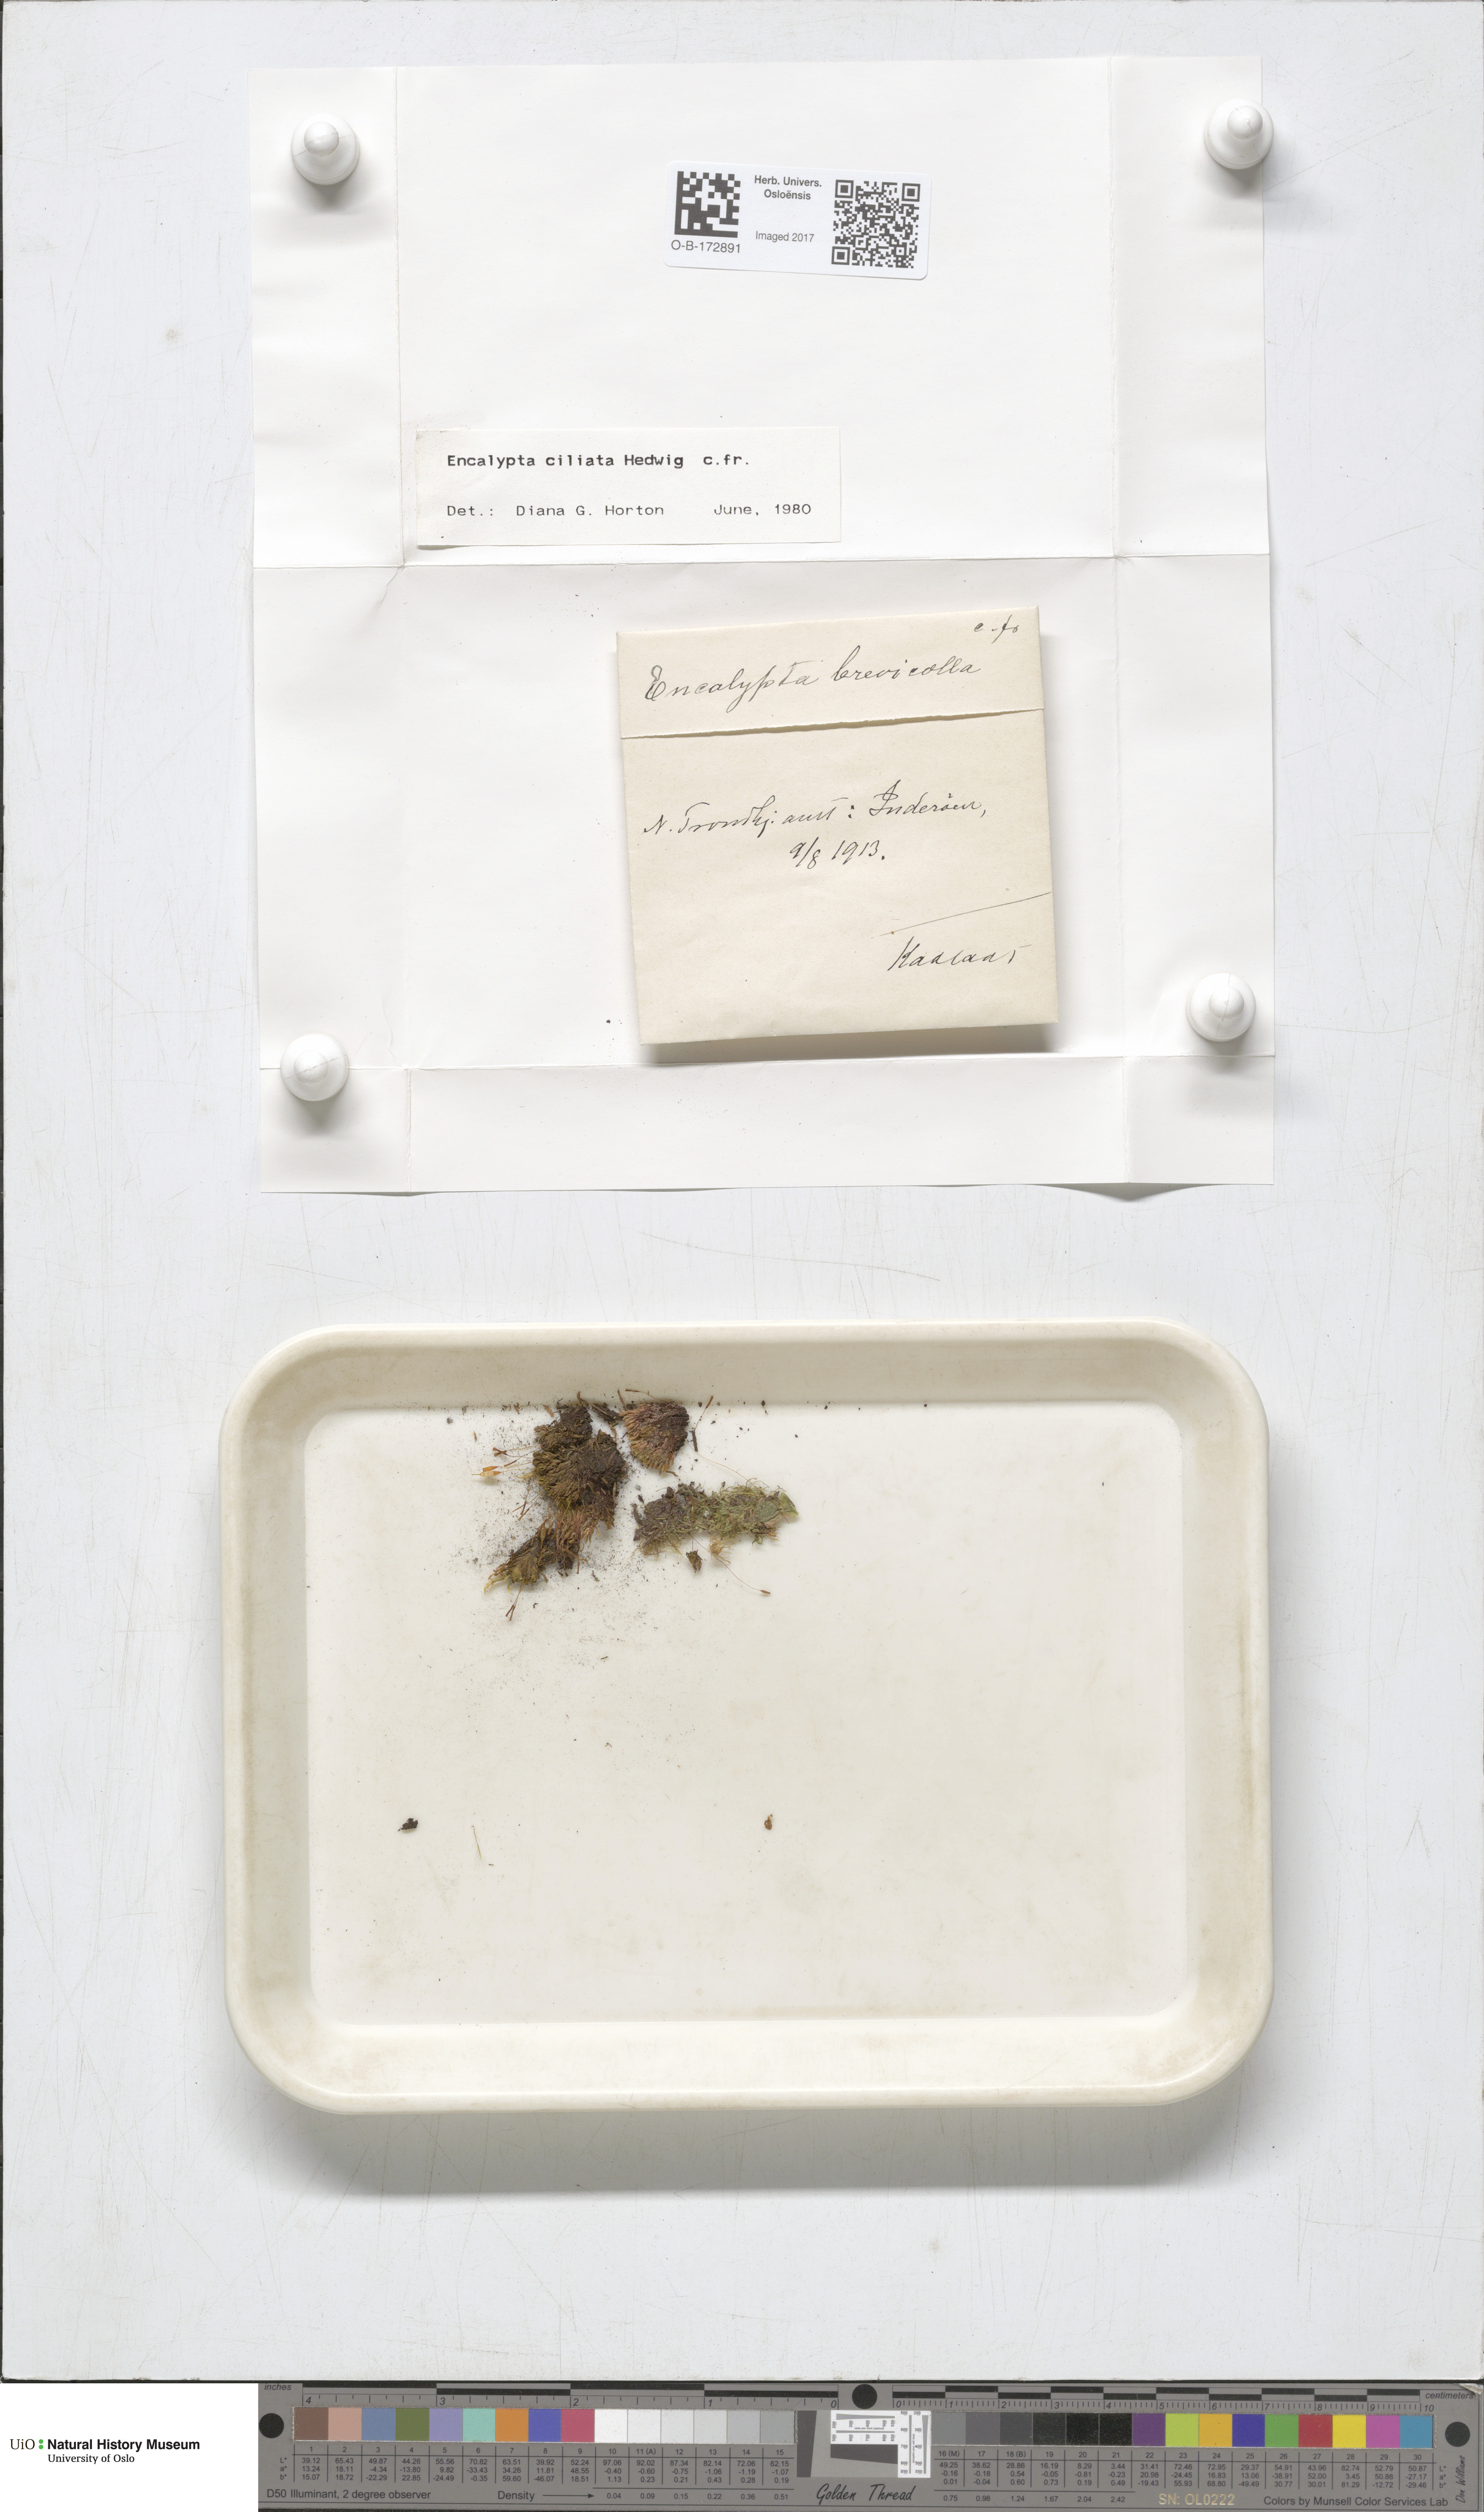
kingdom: Plantae
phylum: Bryophyta
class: Bryopsida
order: Encalyptales
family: Encalyptaceae
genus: Encalypta
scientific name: Encalypta ciliata
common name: Fringed extinguisher-moss
